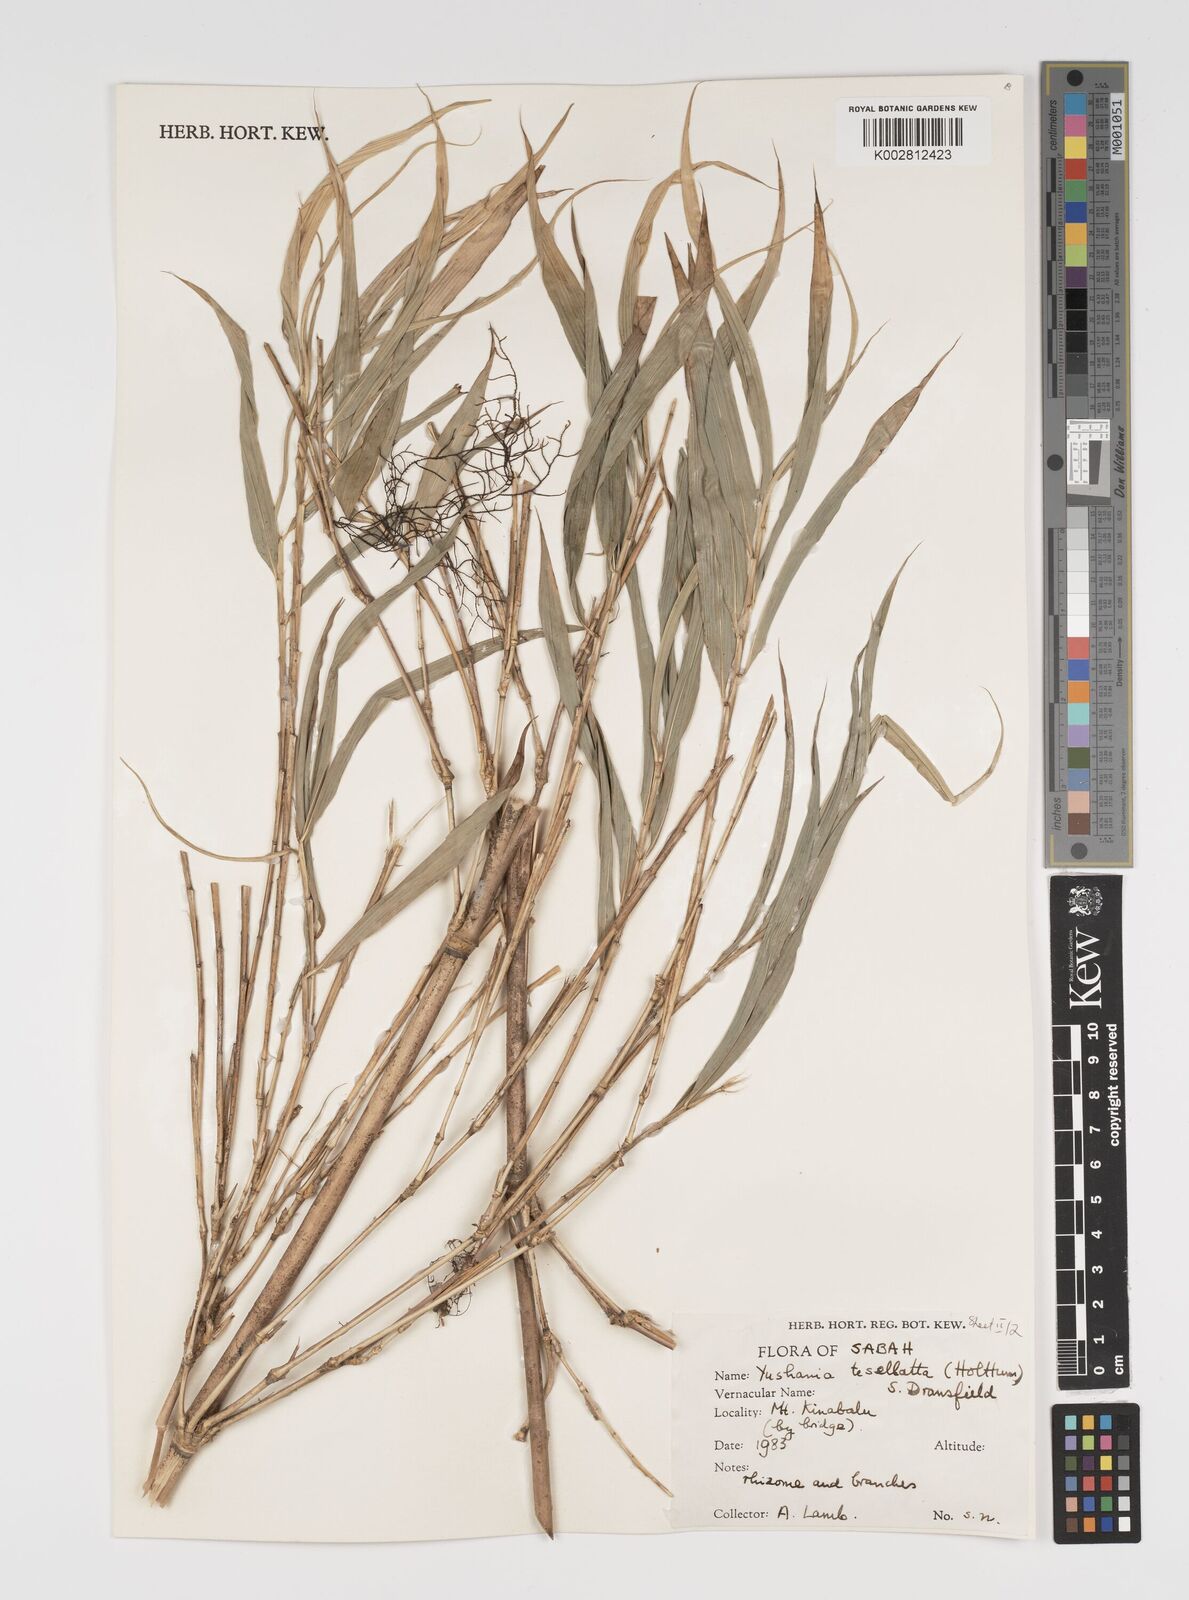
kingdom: Plantae
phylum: Tracheophyta
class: Liliopsida
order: Poales
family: Poaceae
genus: Yushania
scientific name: Yushania tessellata
